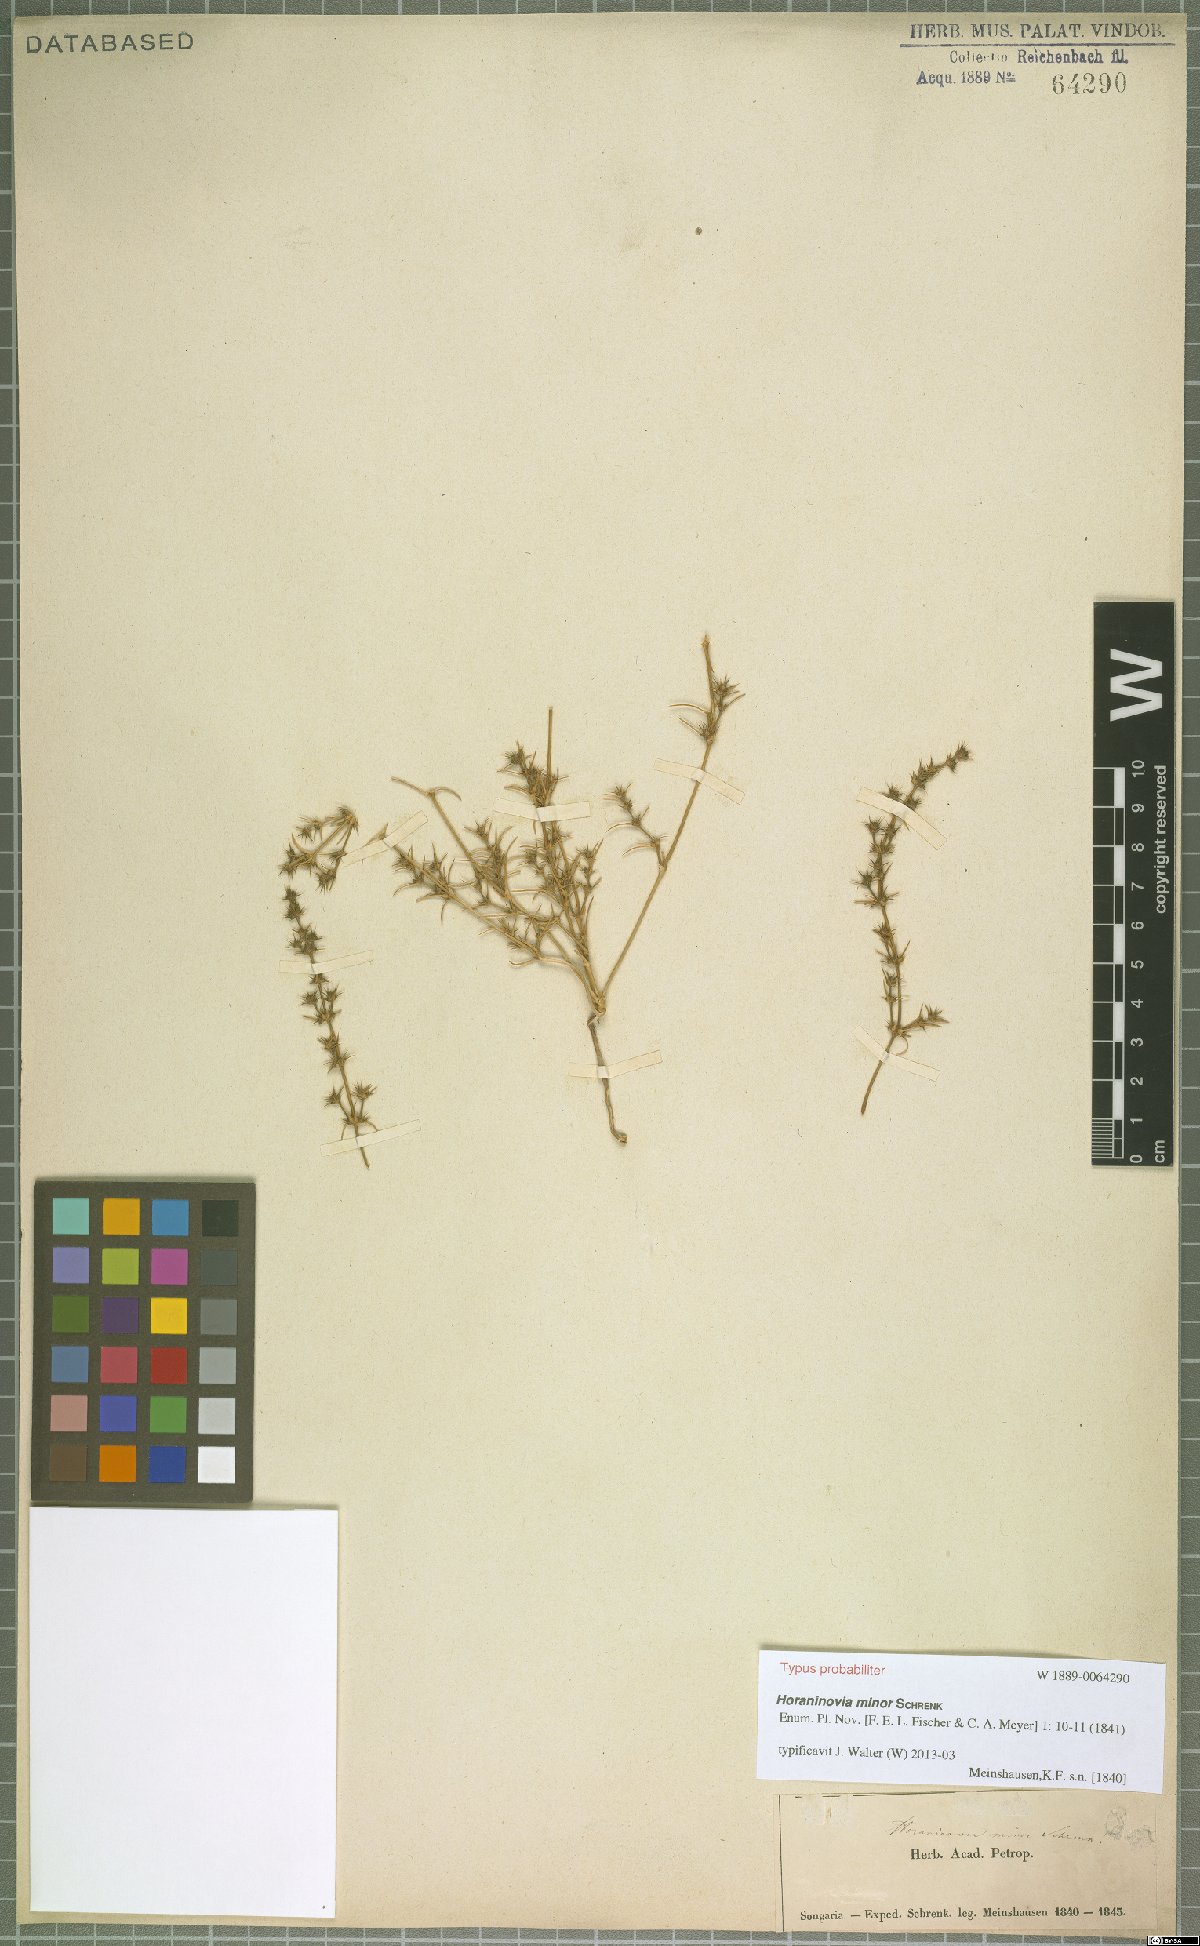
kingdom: Plantae
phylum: Tracheophyta
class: Magnoliopsida
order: Caryophyllales
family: Amaranthaceae
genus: Horaninovia
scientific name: Horaninovia minor
